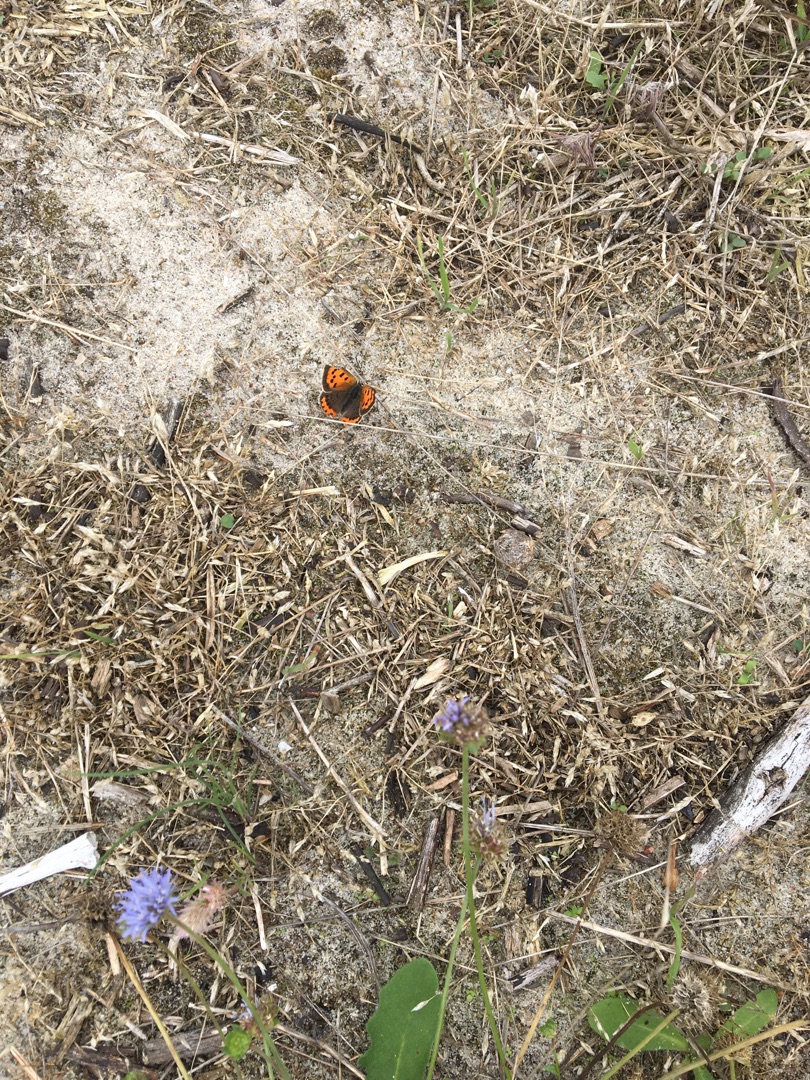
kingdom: Animalia
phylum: Arthropoda
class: Insecta
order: Lepidoptera
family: Lycaenidae
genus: Lycaena
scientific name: Lycaena phlaeas
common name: Lille ildfugl
